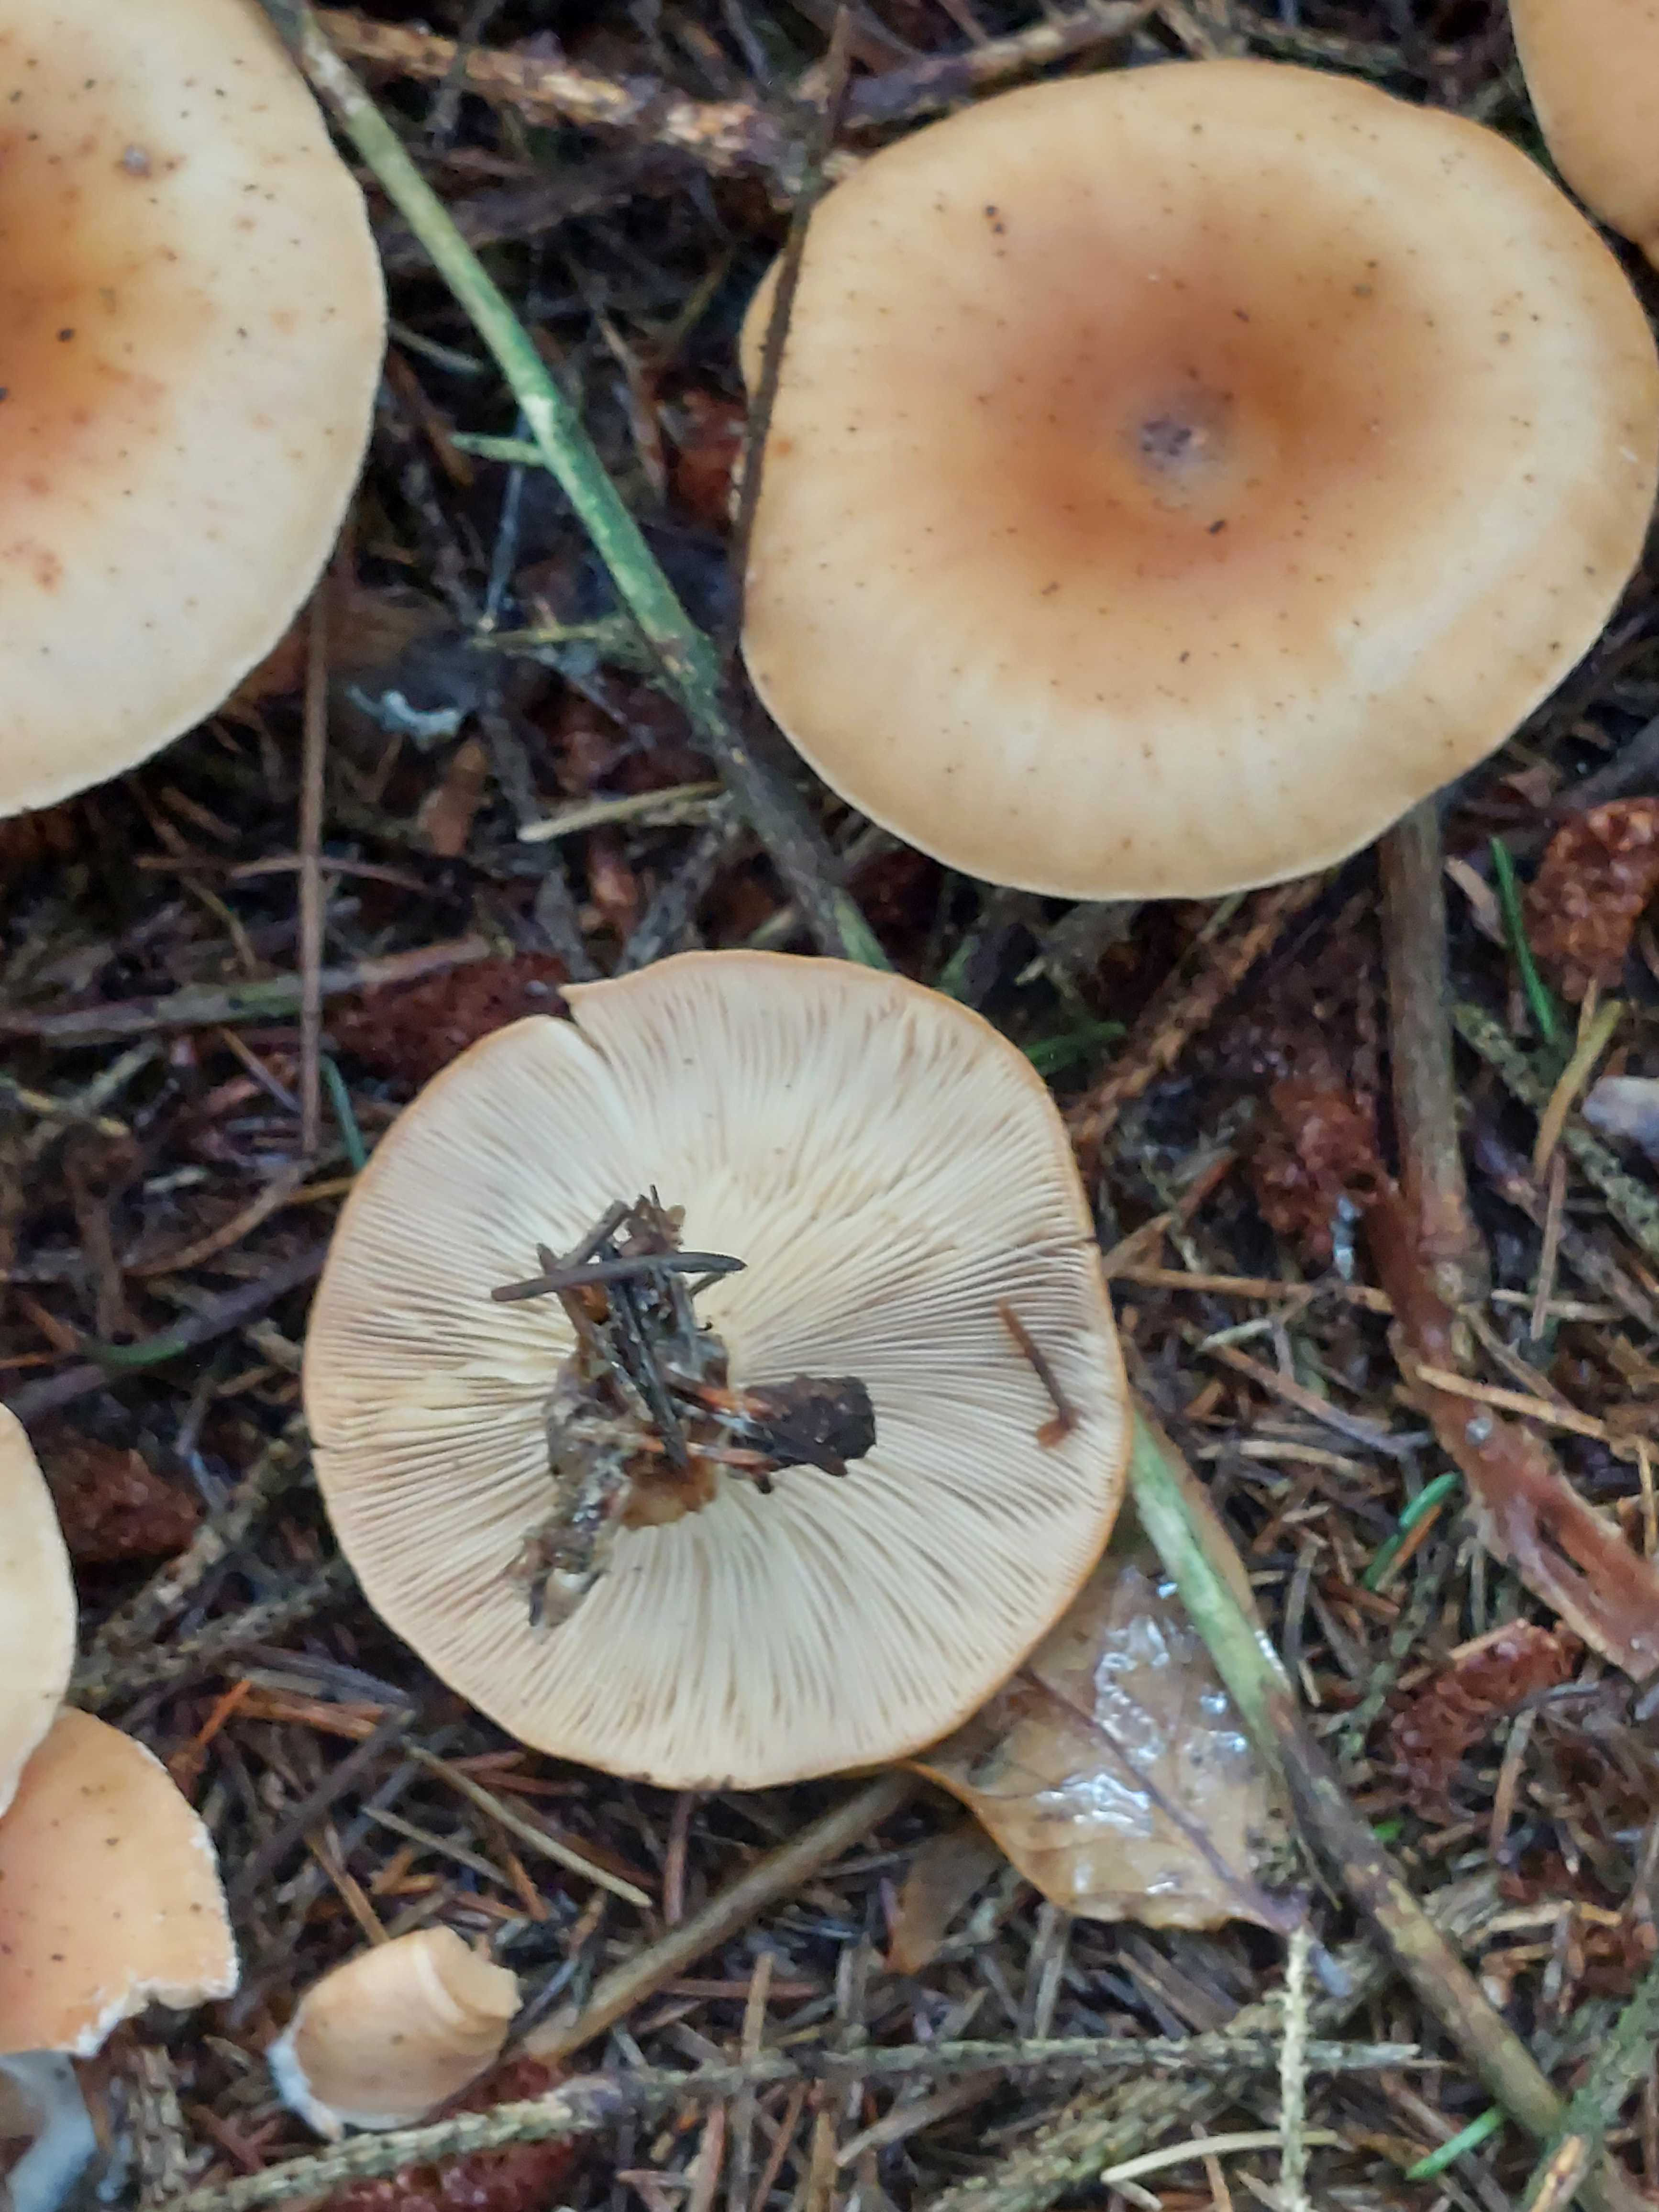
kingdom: Fungi
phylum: Basidiomycota
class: Agaricomycetes
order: Agaricales
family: Tricholomataceae
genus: Paralepista
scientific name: Paralepista flaccida
